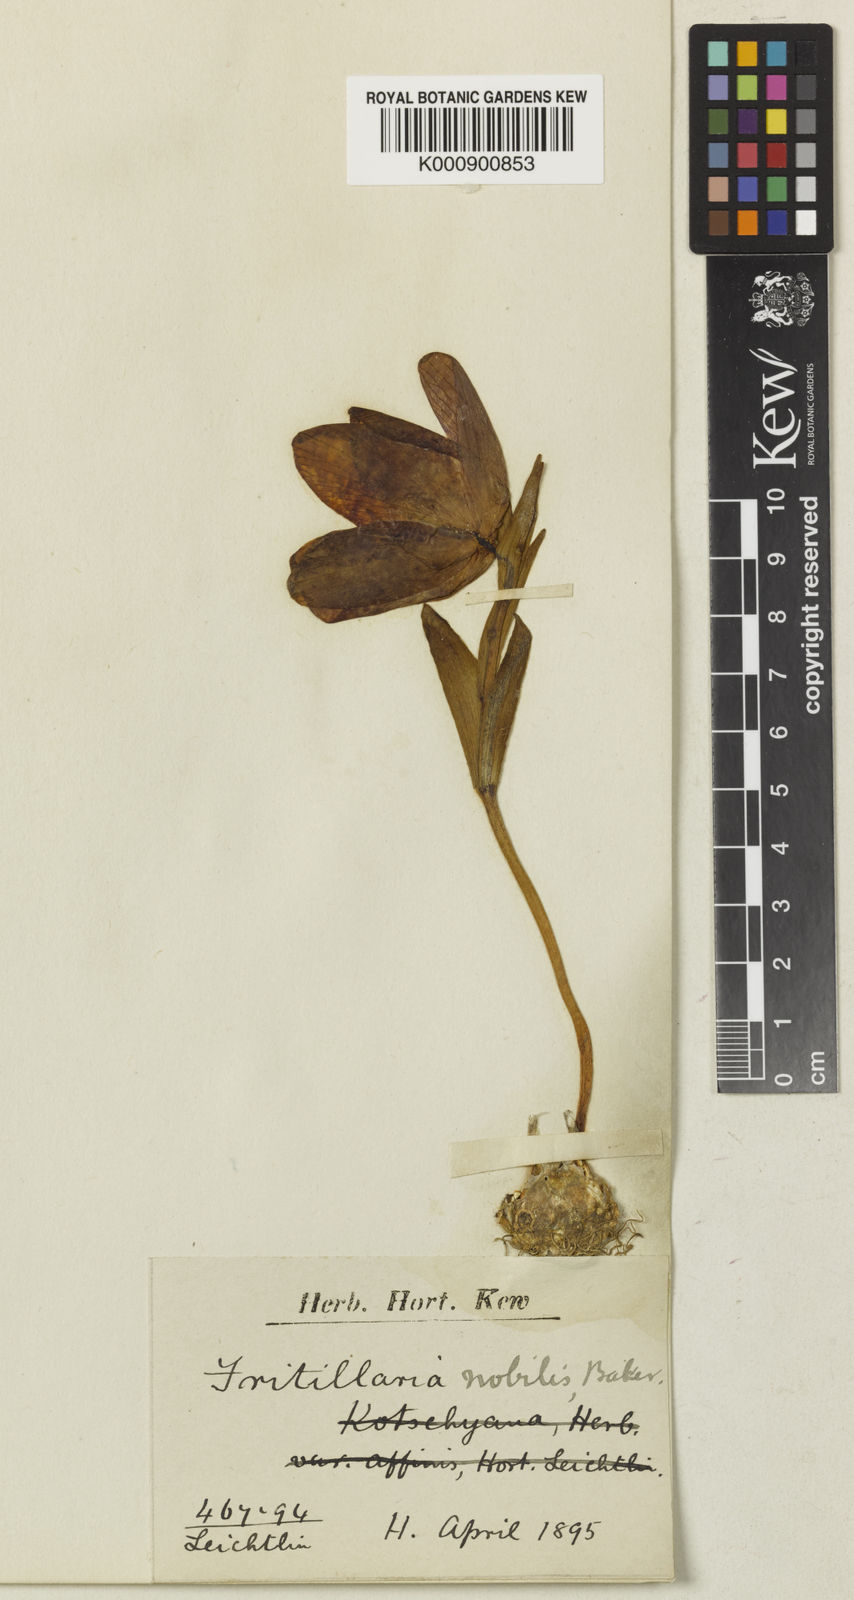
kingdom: Plantae
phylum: Tracheophyta
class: Liliopsida
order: Liliales
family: Liliaceae
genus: Fritillaria
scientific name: Fritillaria latifolia
